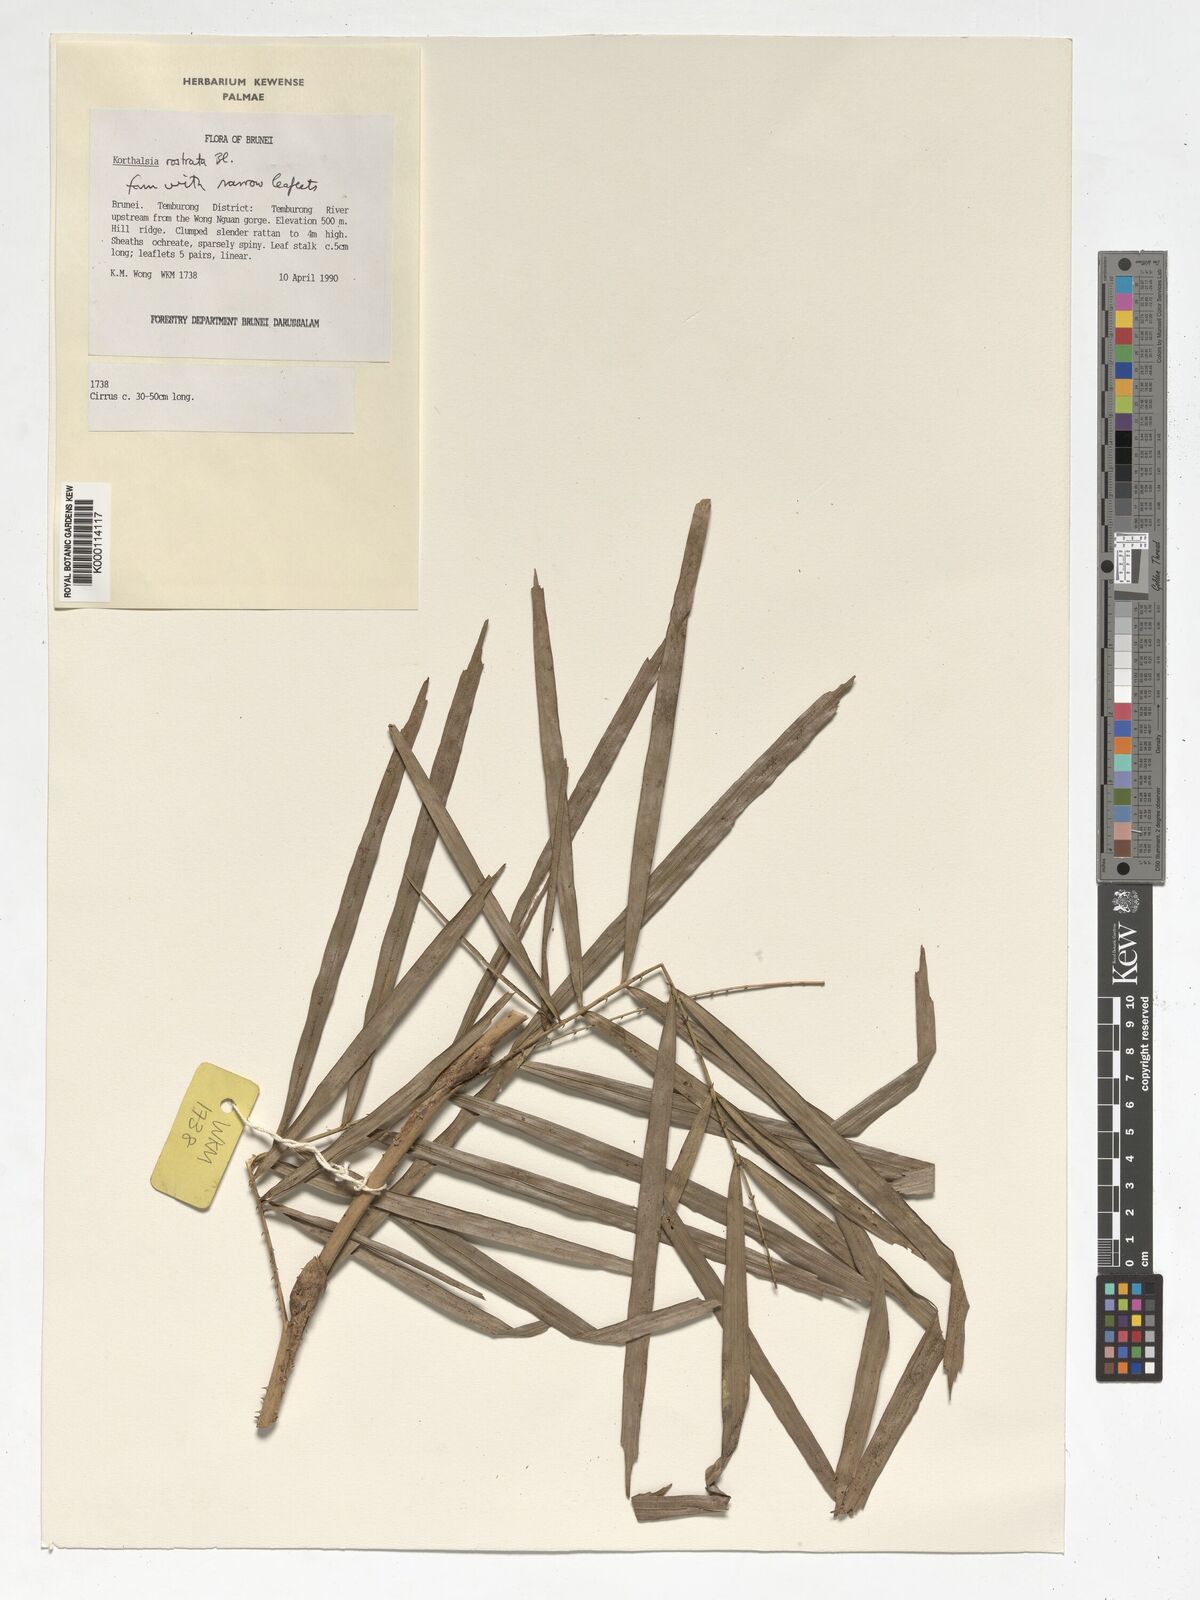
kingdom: Plantae
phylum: Tracheophyta
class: Liliopsida
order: Arecales
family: Arecaceae
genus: Korthalsia
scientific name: Korthalsia rostrata
